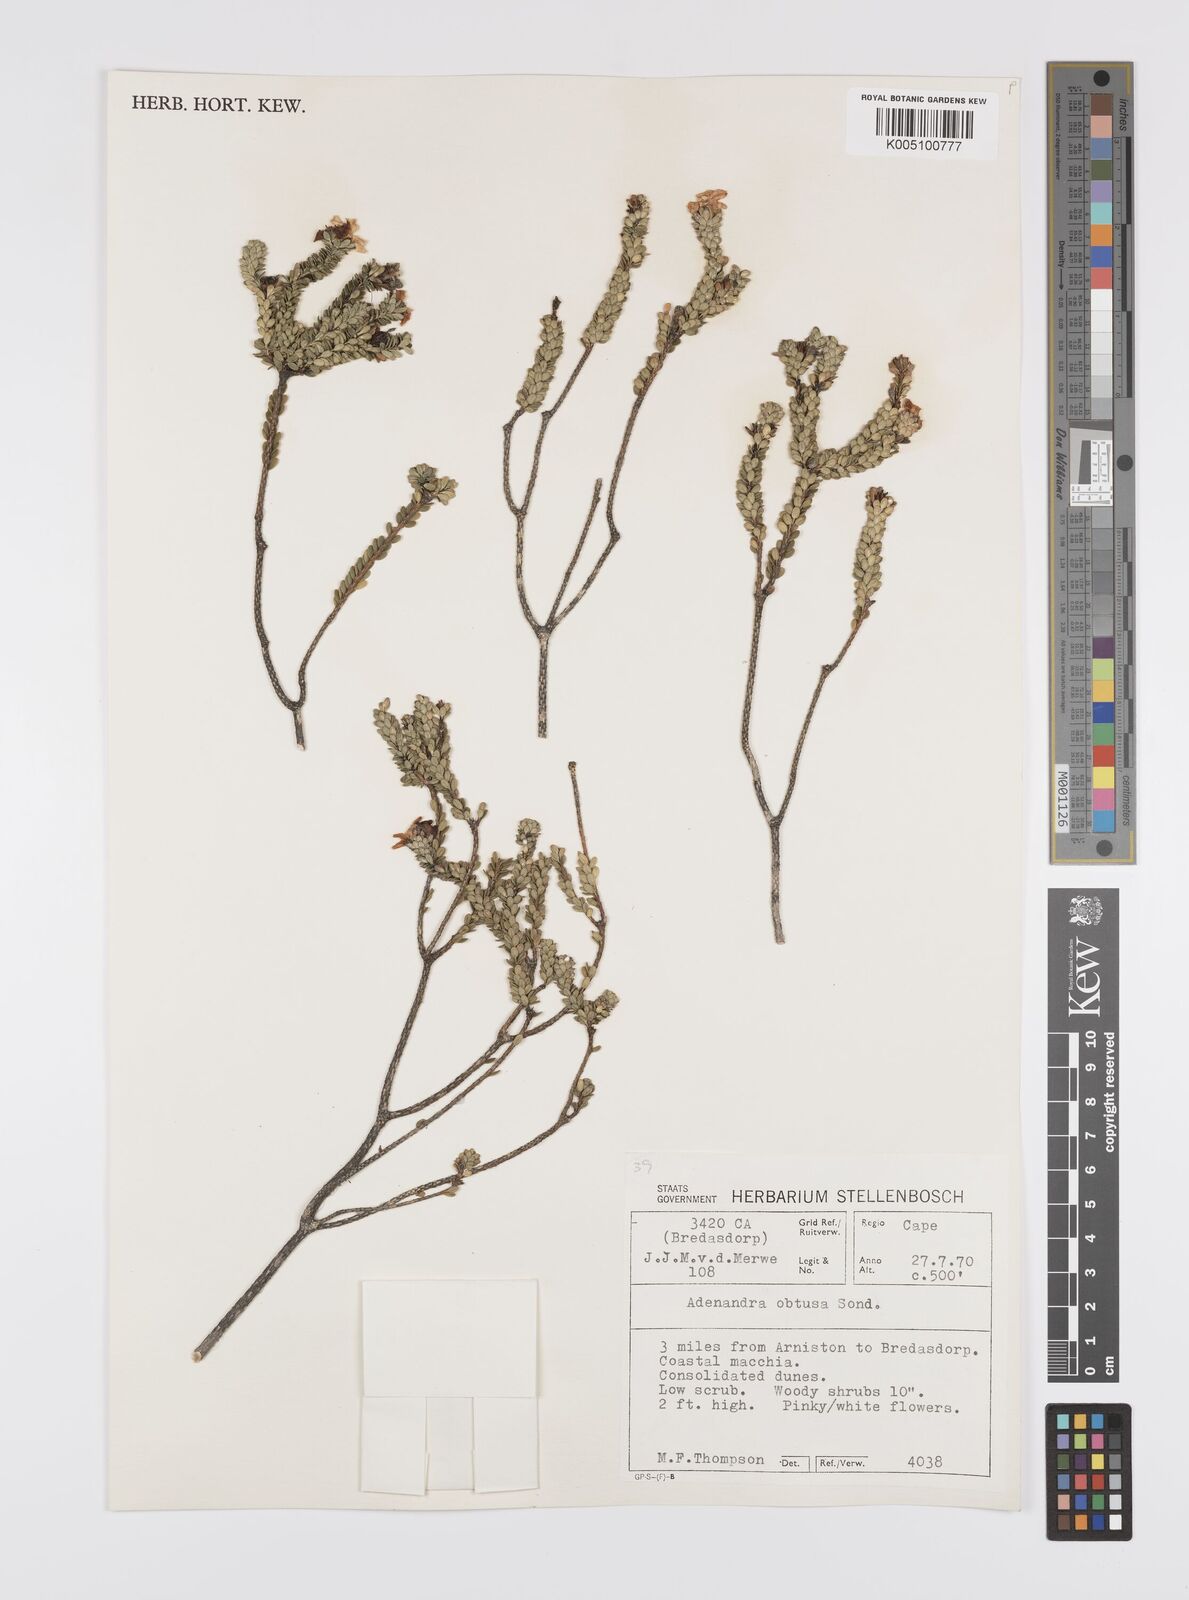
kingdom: Plantae
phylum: Tracheophyta
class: Magnoliopsida
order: Sapindales
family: Rutaceae
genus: Adenandra
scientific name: Adenandra obtusata
